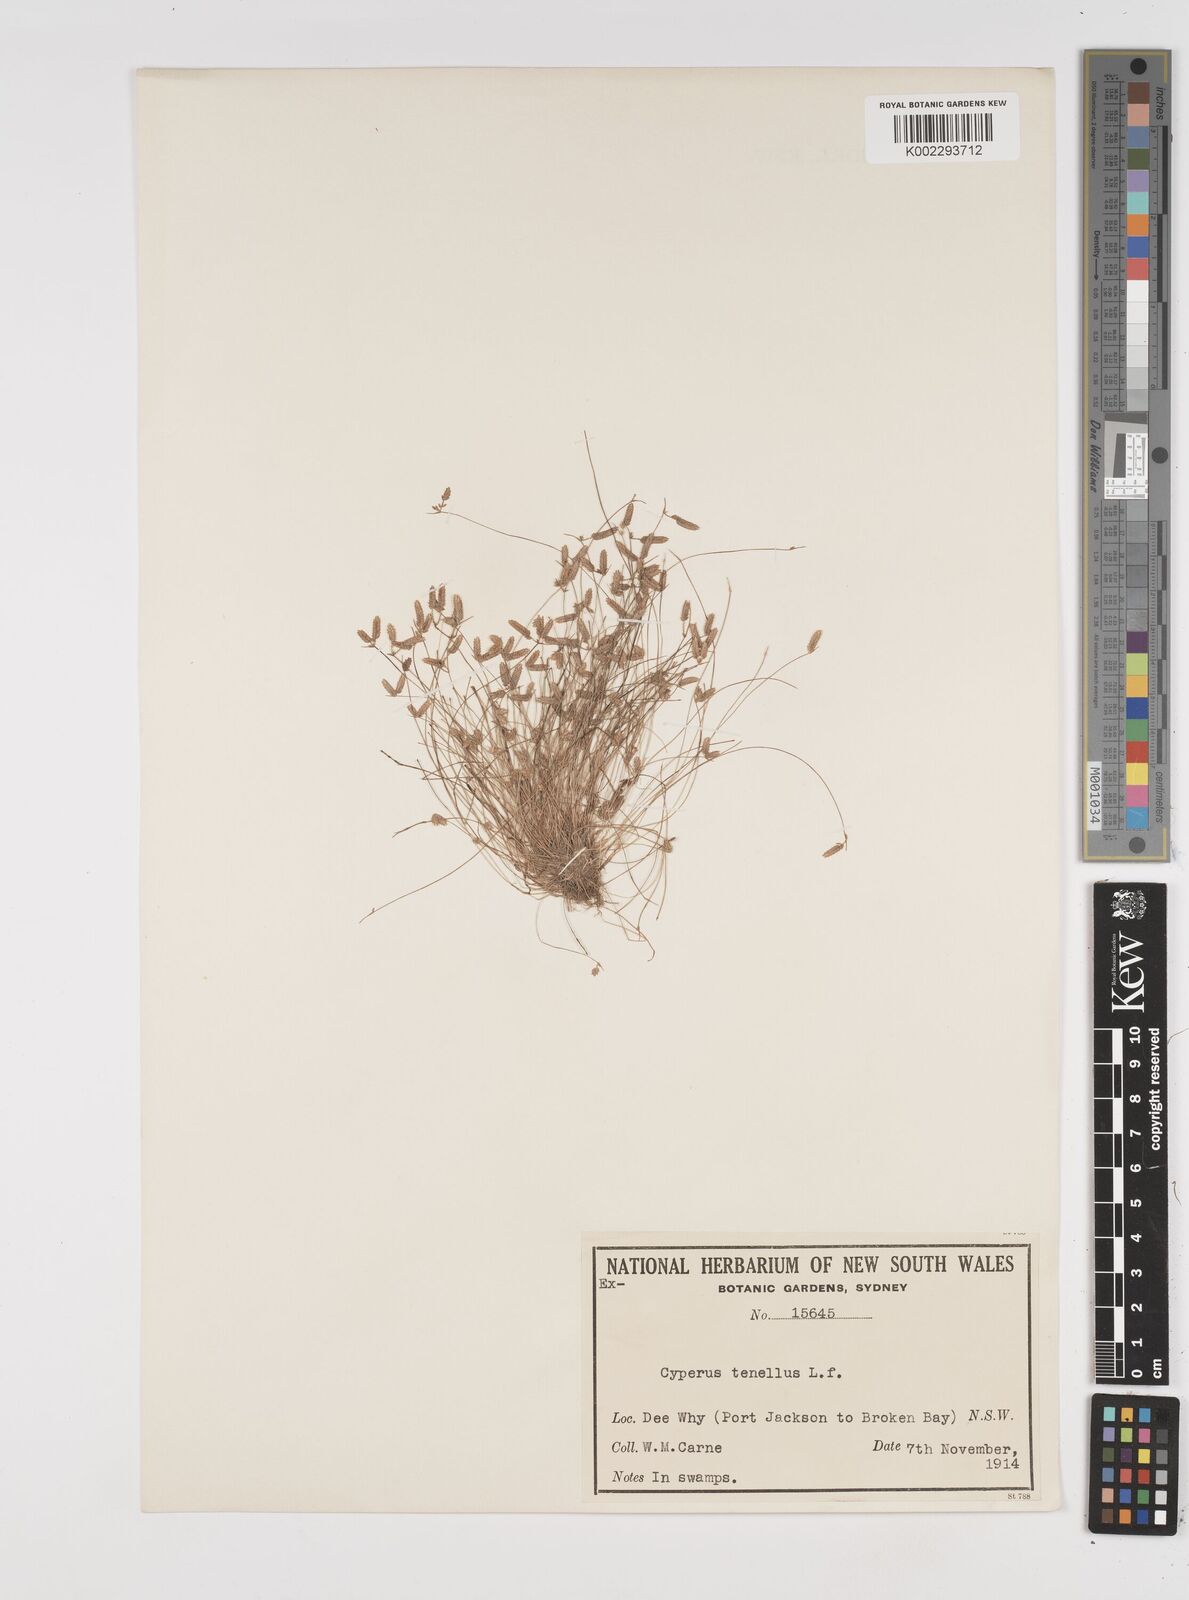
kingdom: Plantae
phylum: Tracheophyta
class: Liliopsida
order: Poales
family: Cyperaceae
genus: Isolepis
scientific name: Isolepis levynsiana
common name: Sedge
